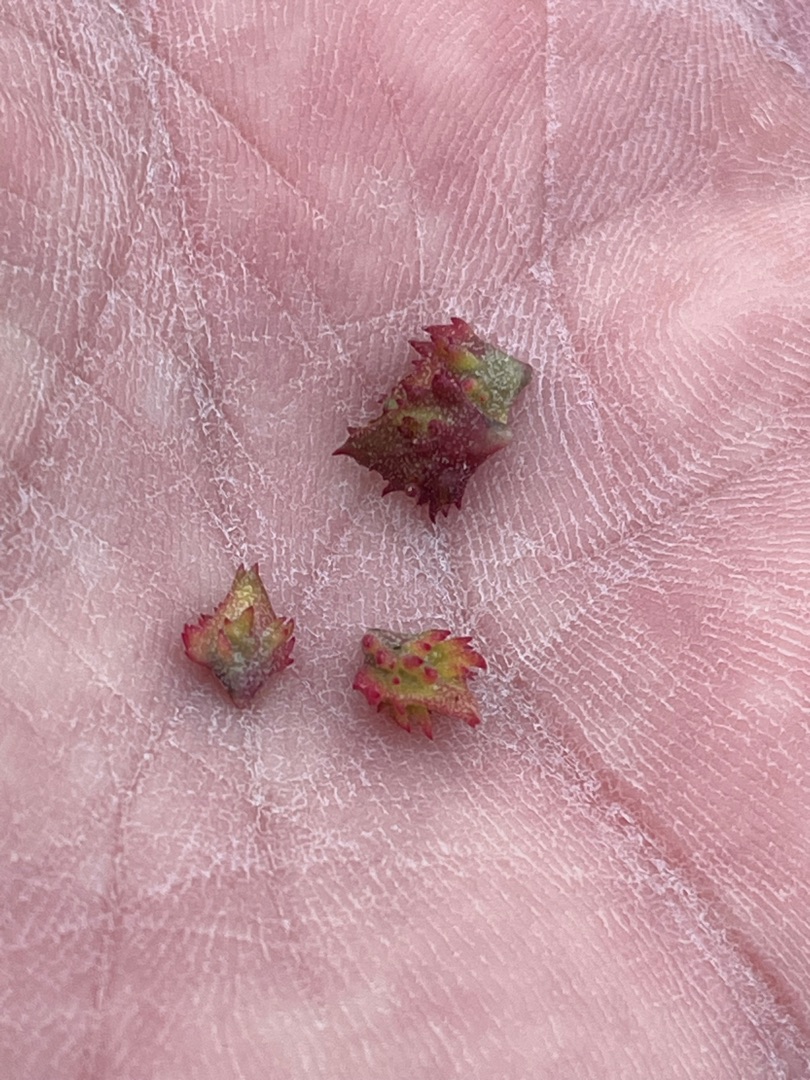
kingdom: Plantae
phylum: Tracheophyta
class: Magnoliopsida
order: Caryophyllales
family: Amaranthaceae
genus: Atriplex
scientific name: Atriplex glabriuscula
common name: Tykbladet mælde
